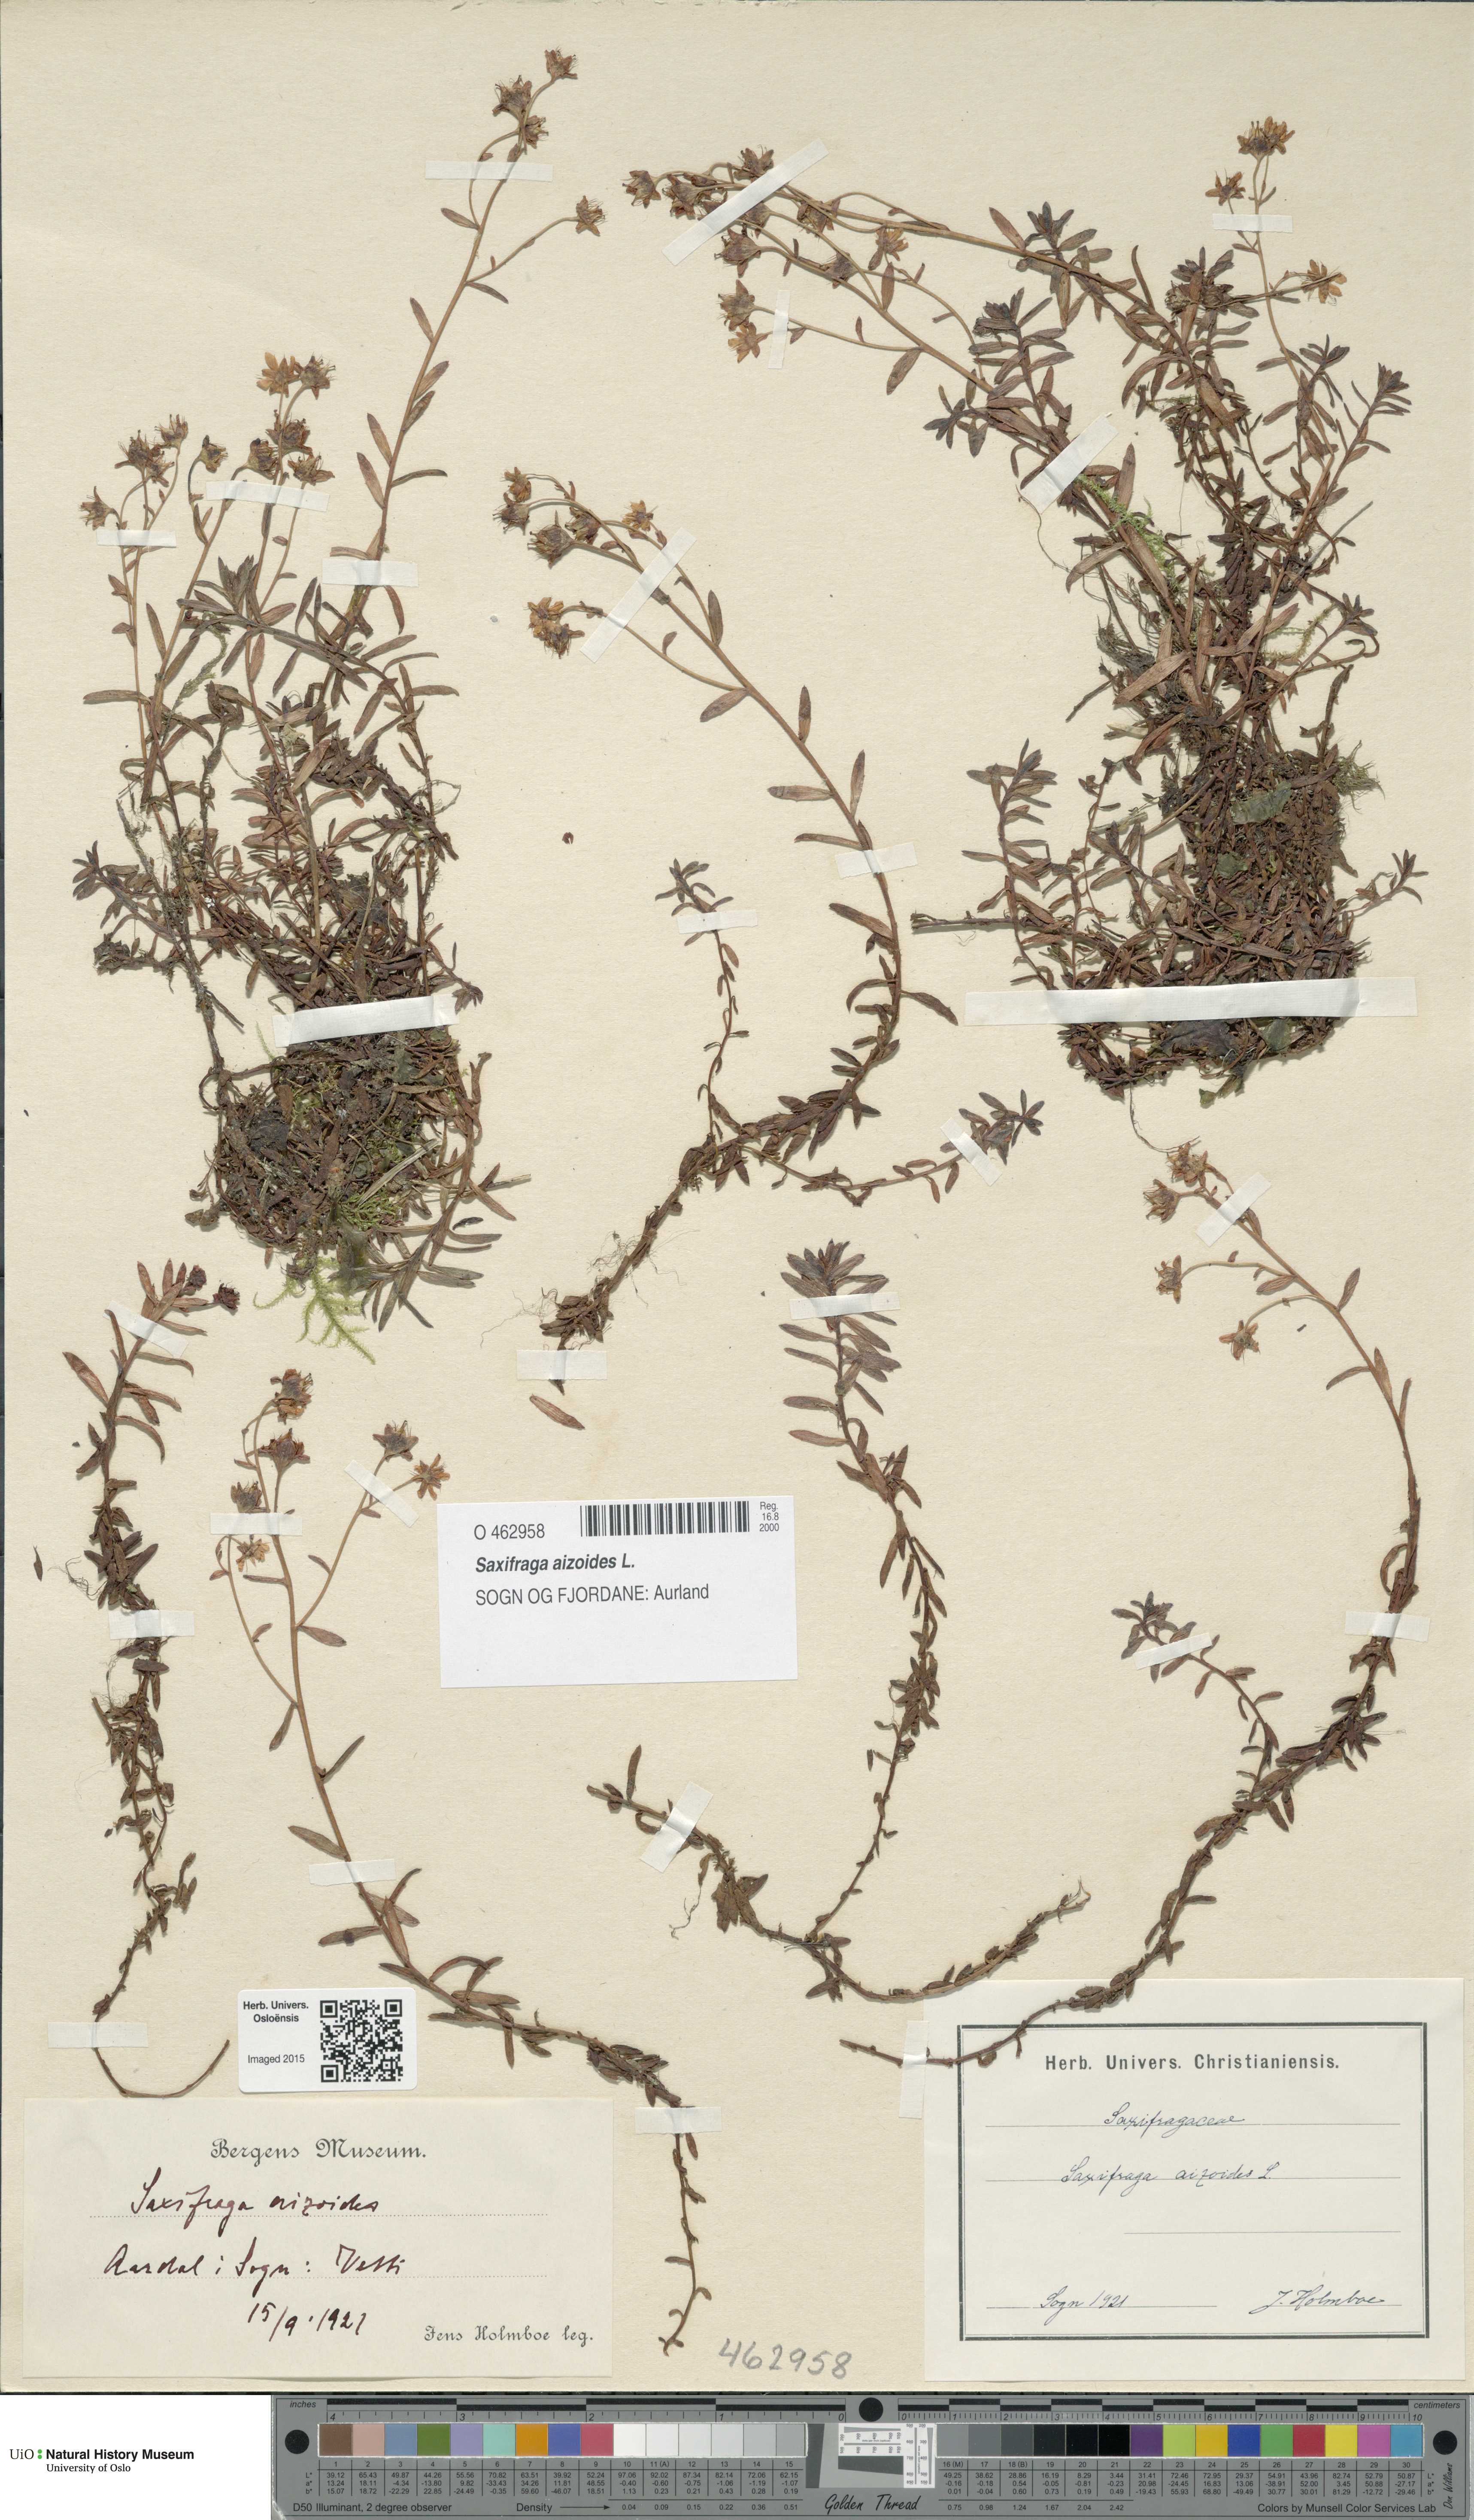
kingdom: Plantae
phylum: Tracheophyta
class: Magnoliopsida
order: Saxifragales
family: Saxifragaceae
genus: Saxifraga
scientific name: Saxifraga aizoides
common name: Yellow mountain saxifrage
